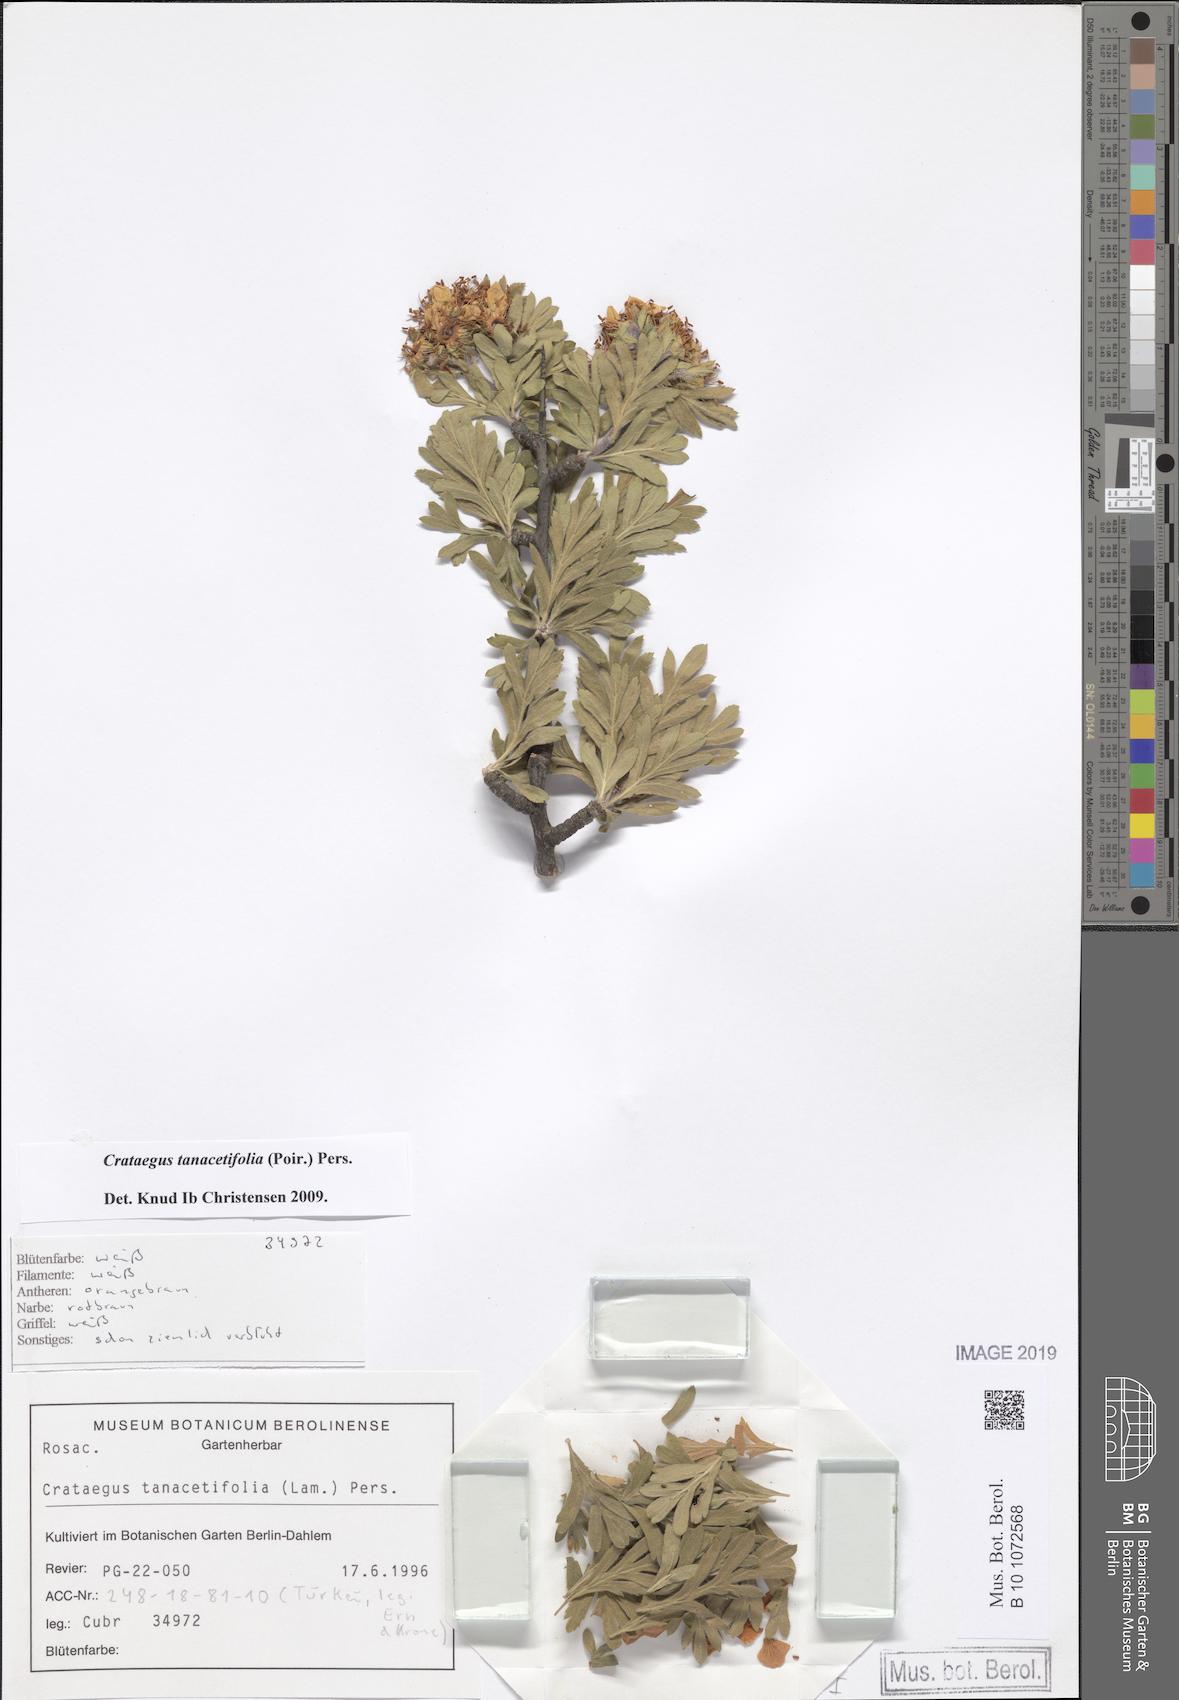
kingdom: Plantae
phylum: Tracheophyta
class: Magnoliopsida
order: Rosales
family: Rosaceae
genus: Crataegus
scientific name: Crataegus tanacetifolia
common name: Tansy-leaved thorn
